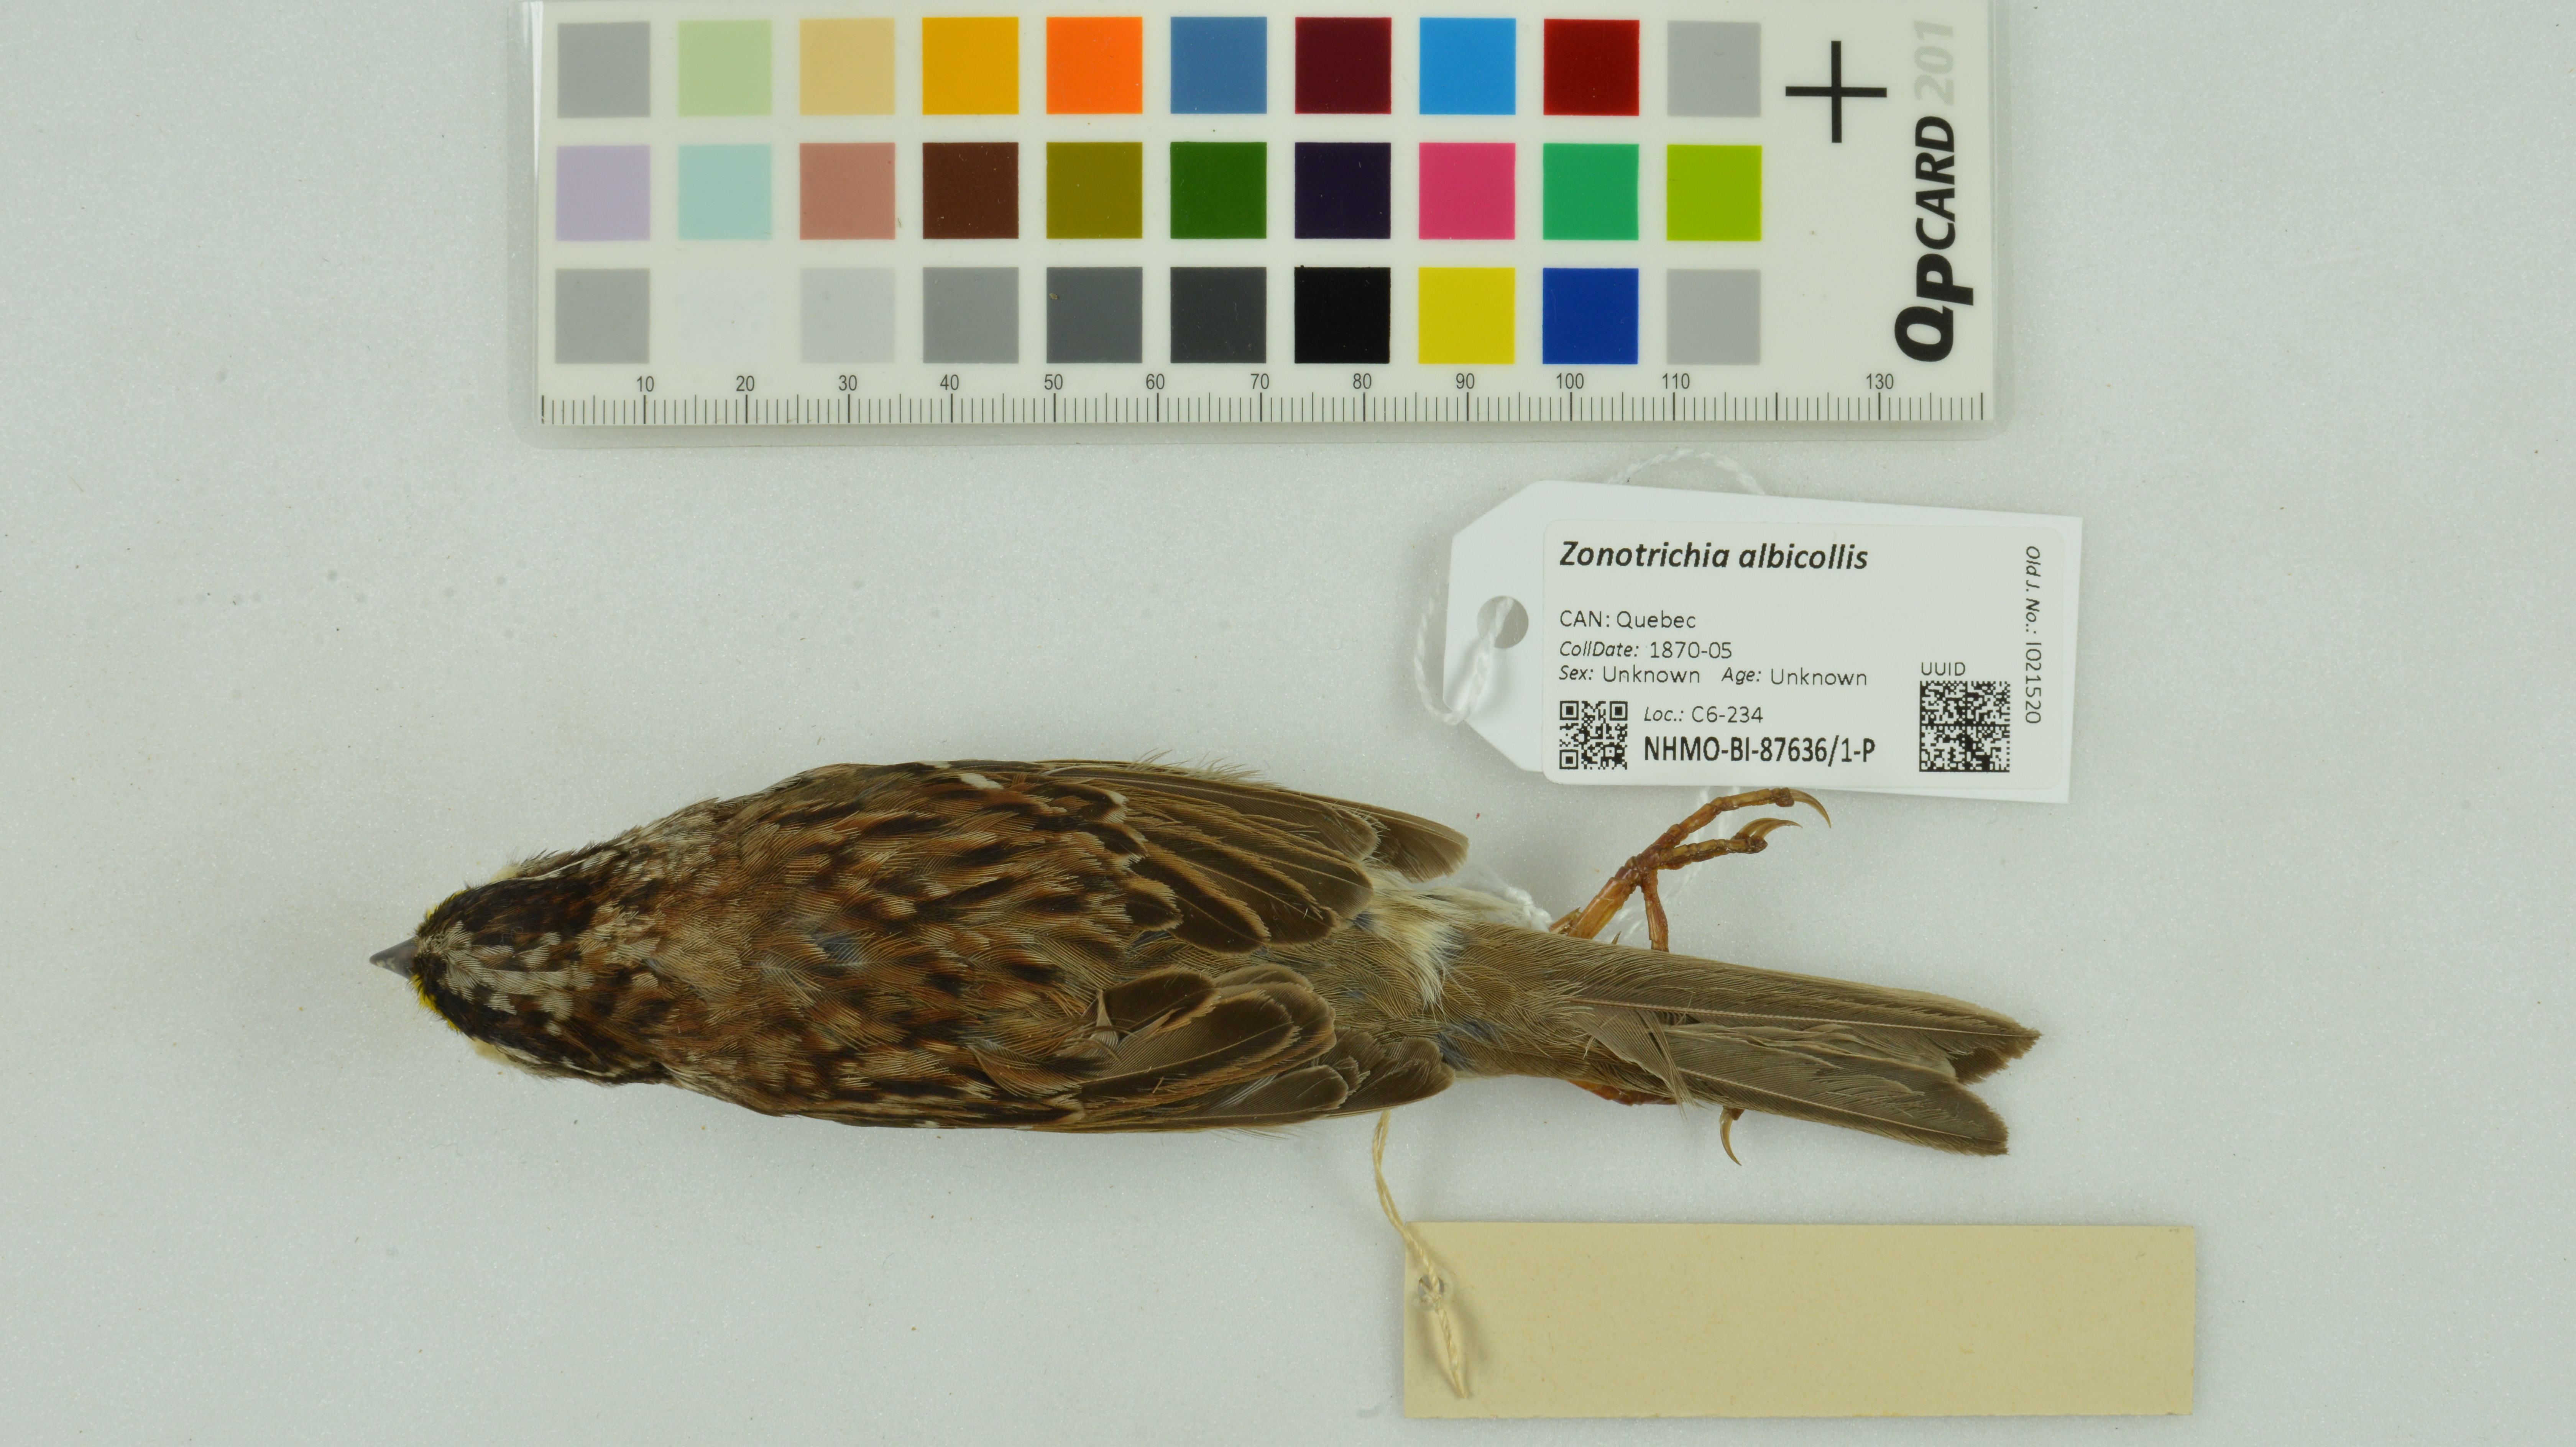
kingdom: Animalia
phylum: Chordata
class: Aves
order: Passeriformes
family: Passerellidae
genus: Zonotrichia
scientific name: Zonotrichia albicollis
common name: White-throated sparrow
